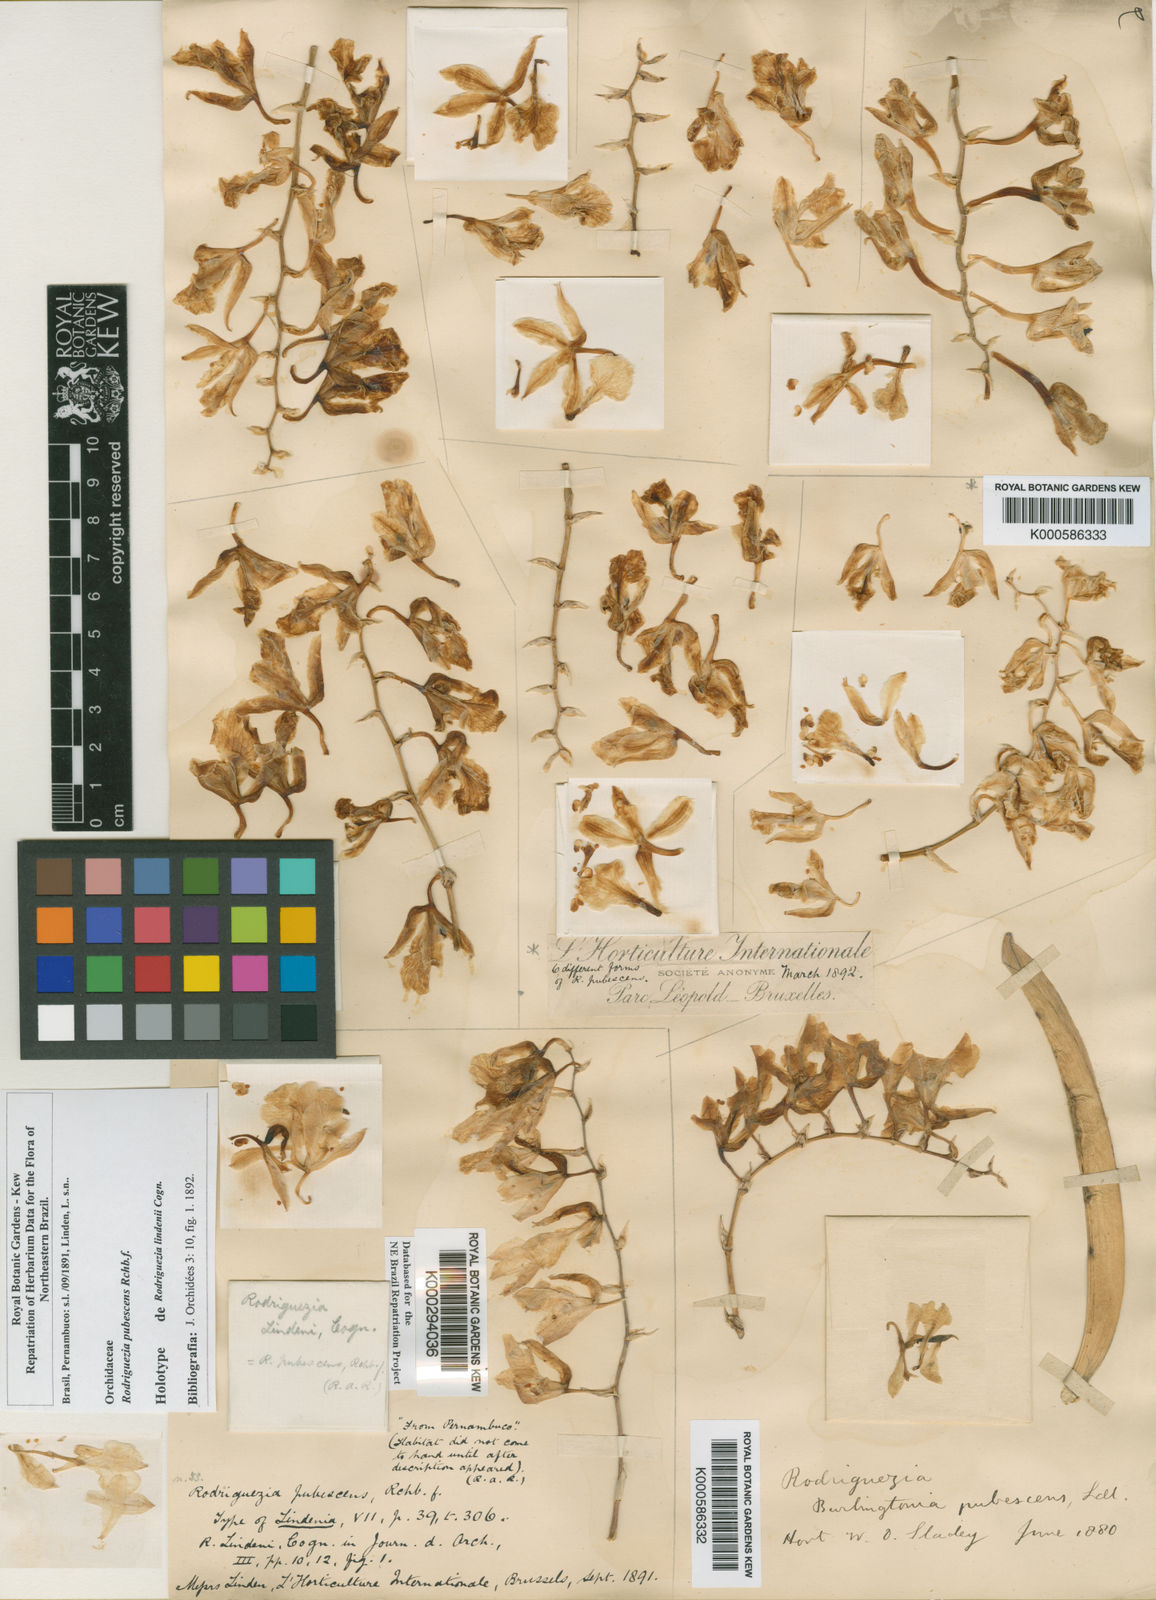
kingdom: Plantae
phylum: Tracheophyta
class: Liliopsida
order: Asparagales
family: Orchidaceae
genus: Rodriguezia
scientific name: Rodriguezia pubescens
